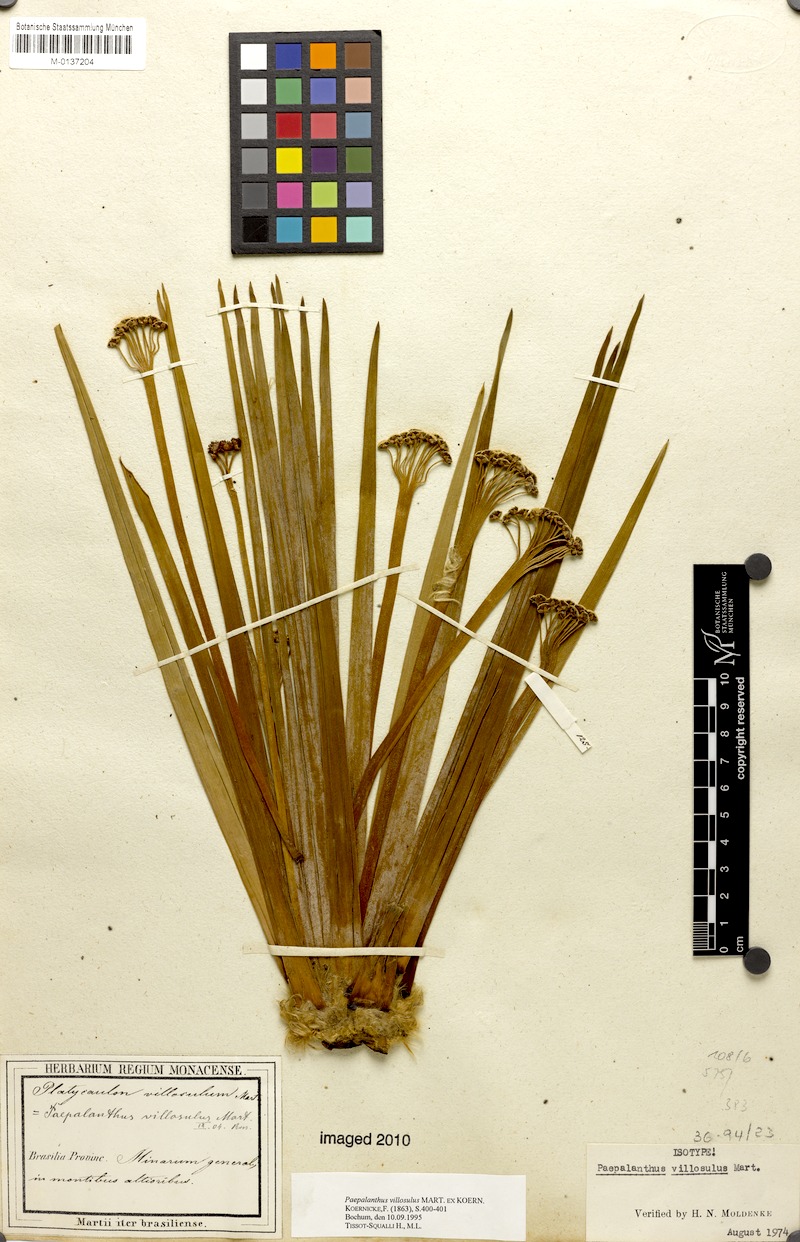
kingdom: Plantae
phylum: Tracheophyta
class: Liliopsida
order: Poales
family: Eriocaulaceae
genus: Paepalanthus
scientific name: Paepalanthus villosulus
